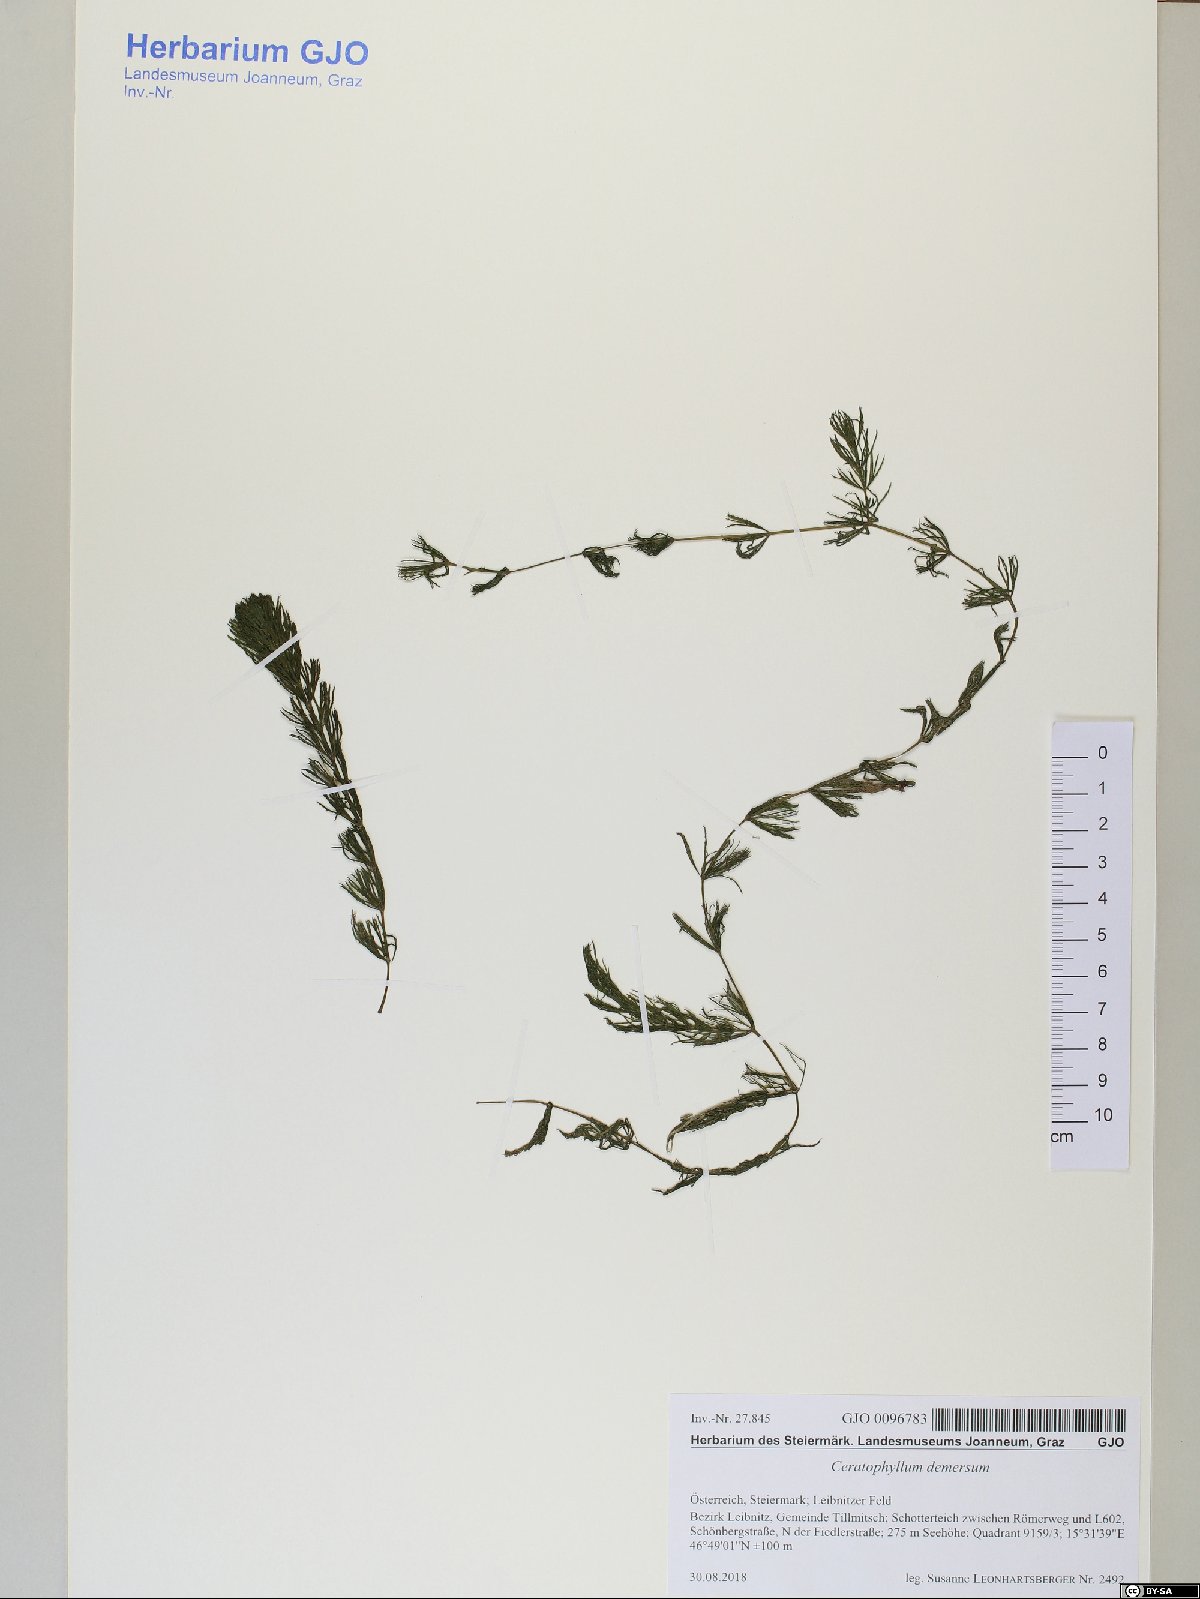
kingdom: Plantae
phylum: Tracheophyta
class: Magnoliopsida
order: Ceratophyllales
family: Ceratophyllaceae
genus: Ceratophyllum
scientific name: Ceratophyllum demersum
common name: Rigid hornwort
